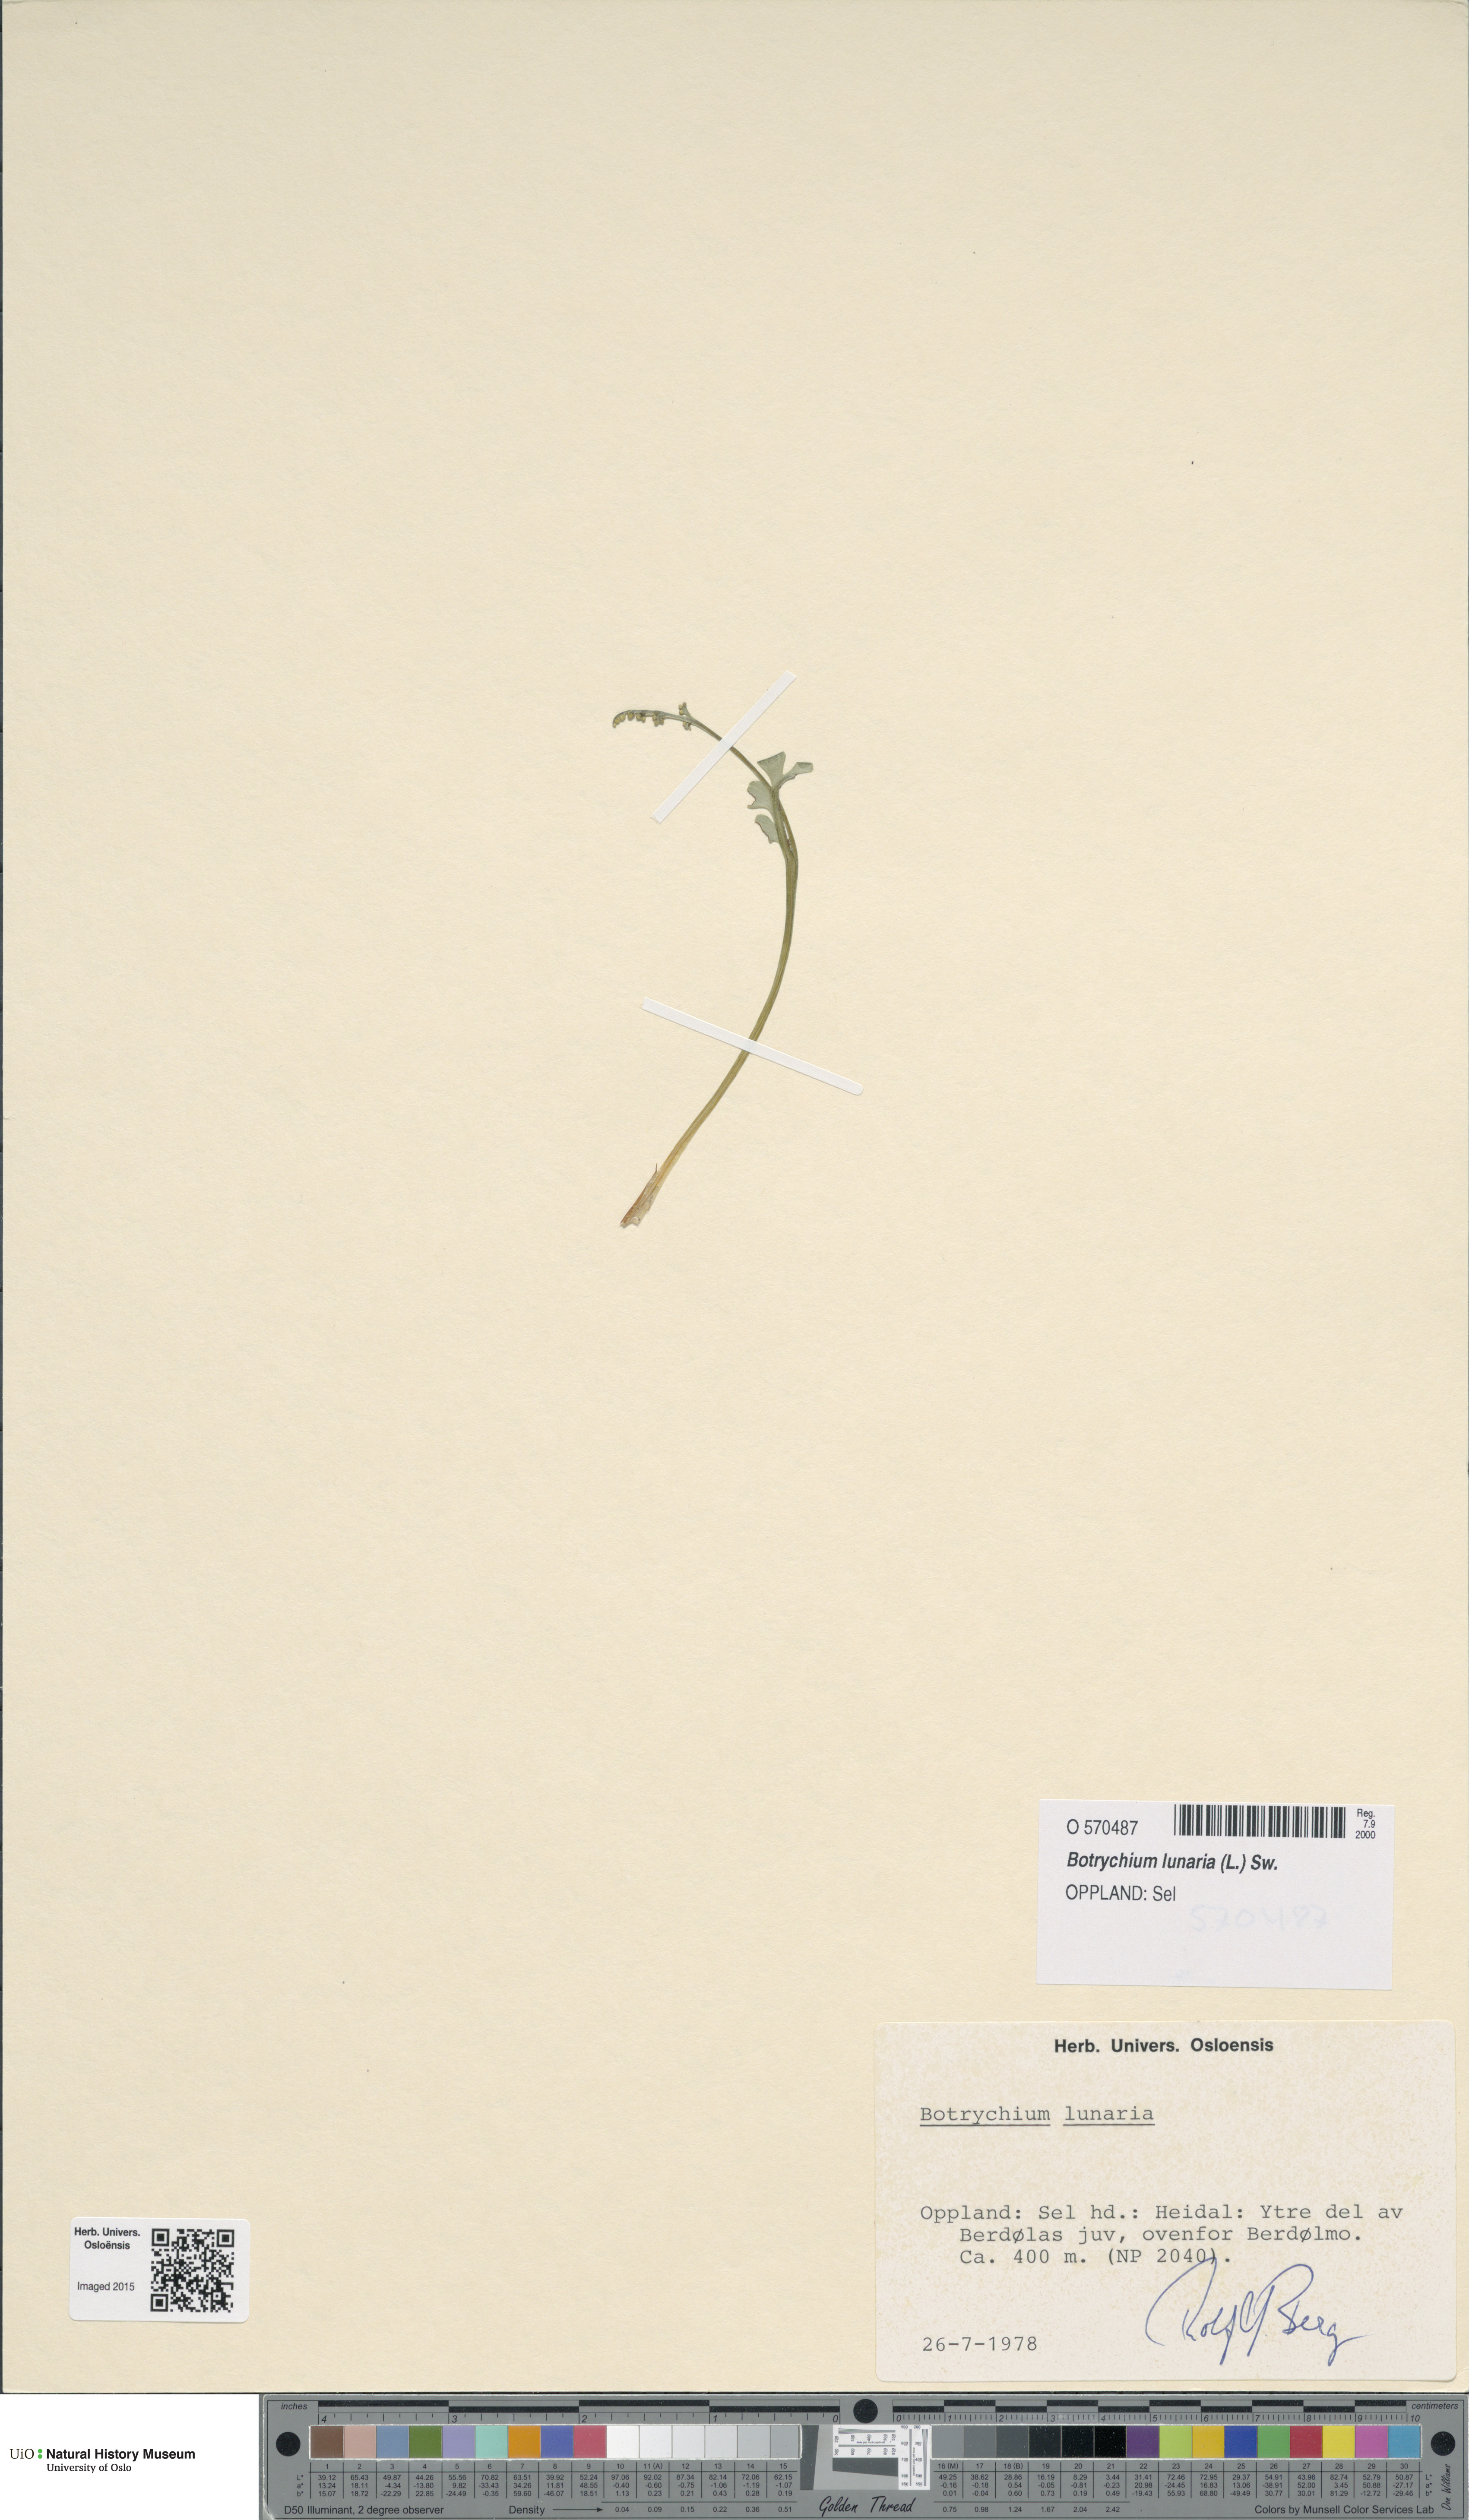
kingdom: Plantae
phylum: Tracheophyta
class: Polypodiopsida
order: Ophioglossales
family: Ophioglossaceae
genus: Botrychium
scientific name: Botrychium lunaria
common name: Moonwort
